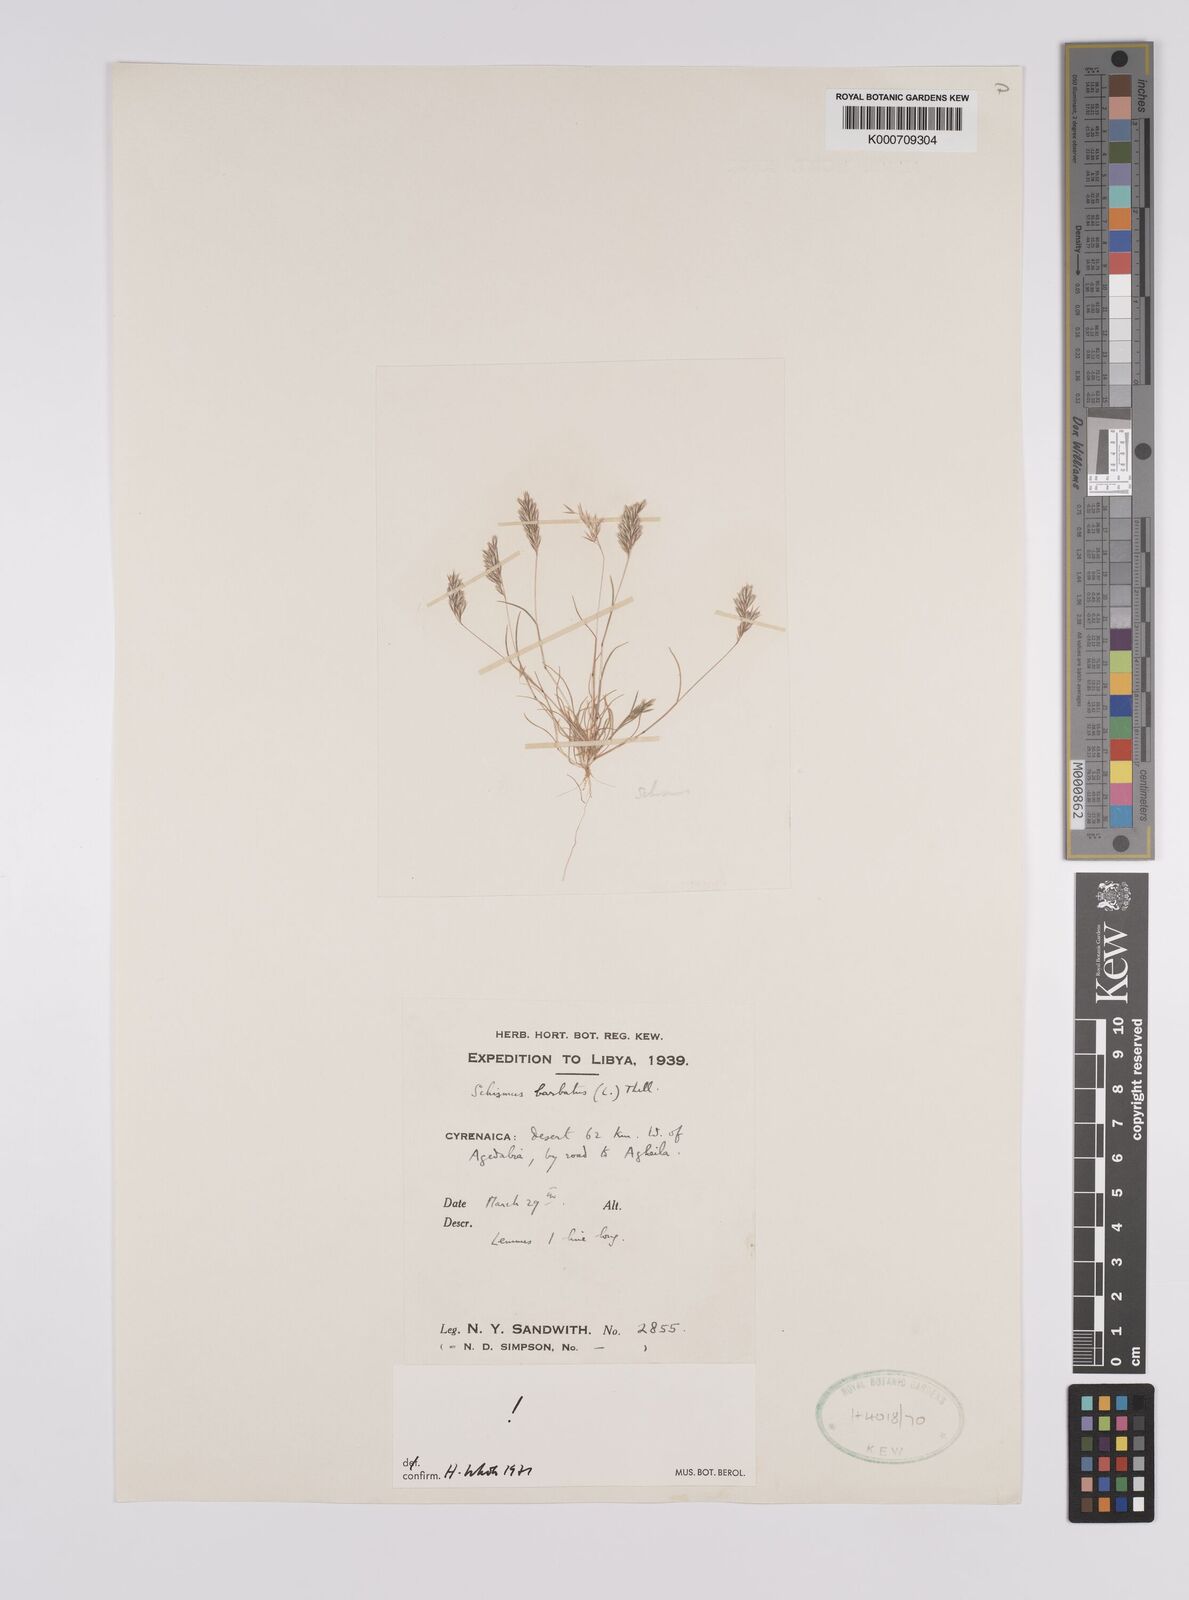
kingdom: Plantae
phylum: Tracheophyta
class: Liliopsida
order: Poales
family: Poaceae
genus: Schismus
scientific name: Schismus barbatus
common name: Kelch-grass
